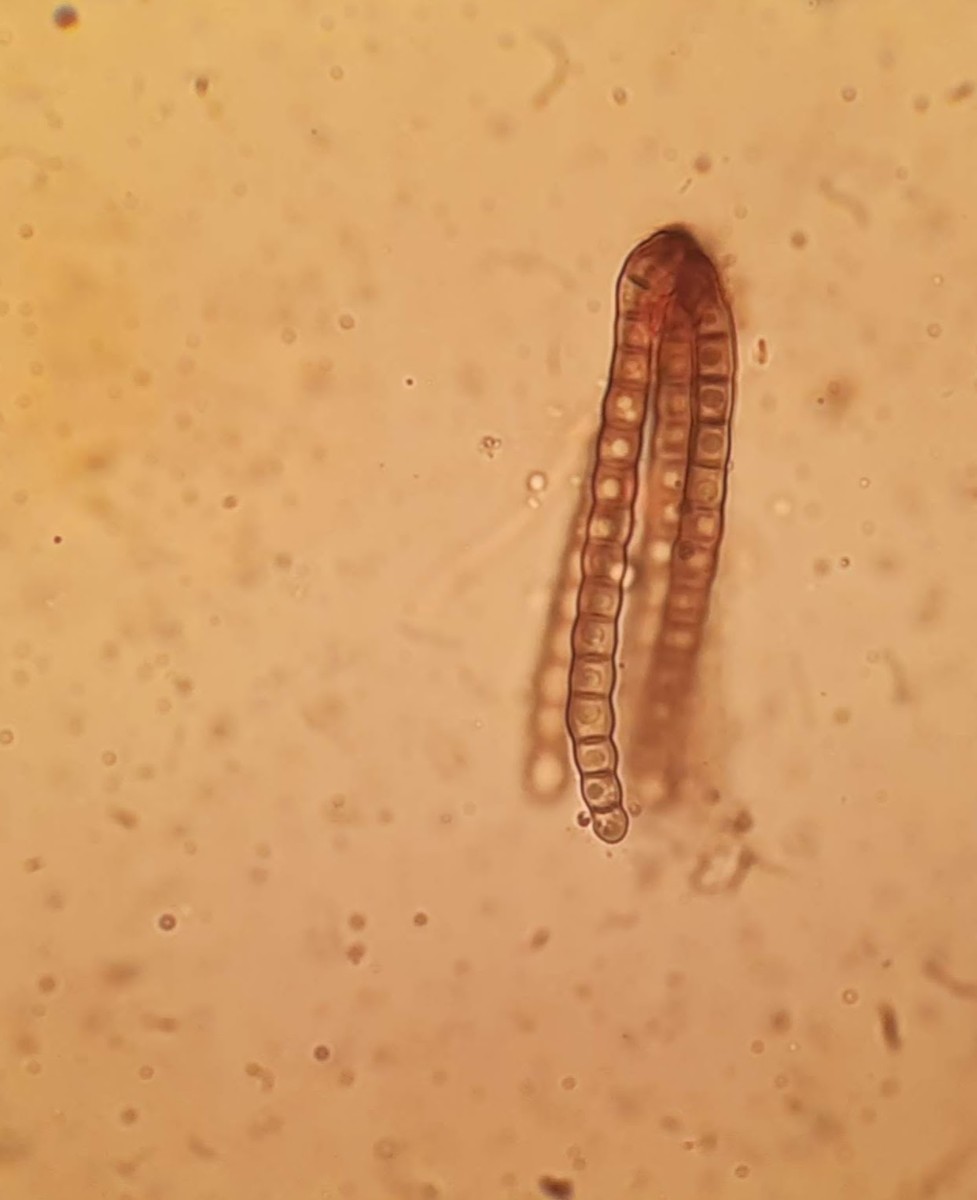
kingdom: Fungi
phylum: Ascomycota
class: Dothideomycetes
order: Pleosporales
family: Cryptocoryneaceae
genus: Cryptocoryneum
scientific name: Cryptocoryneum condensatum
